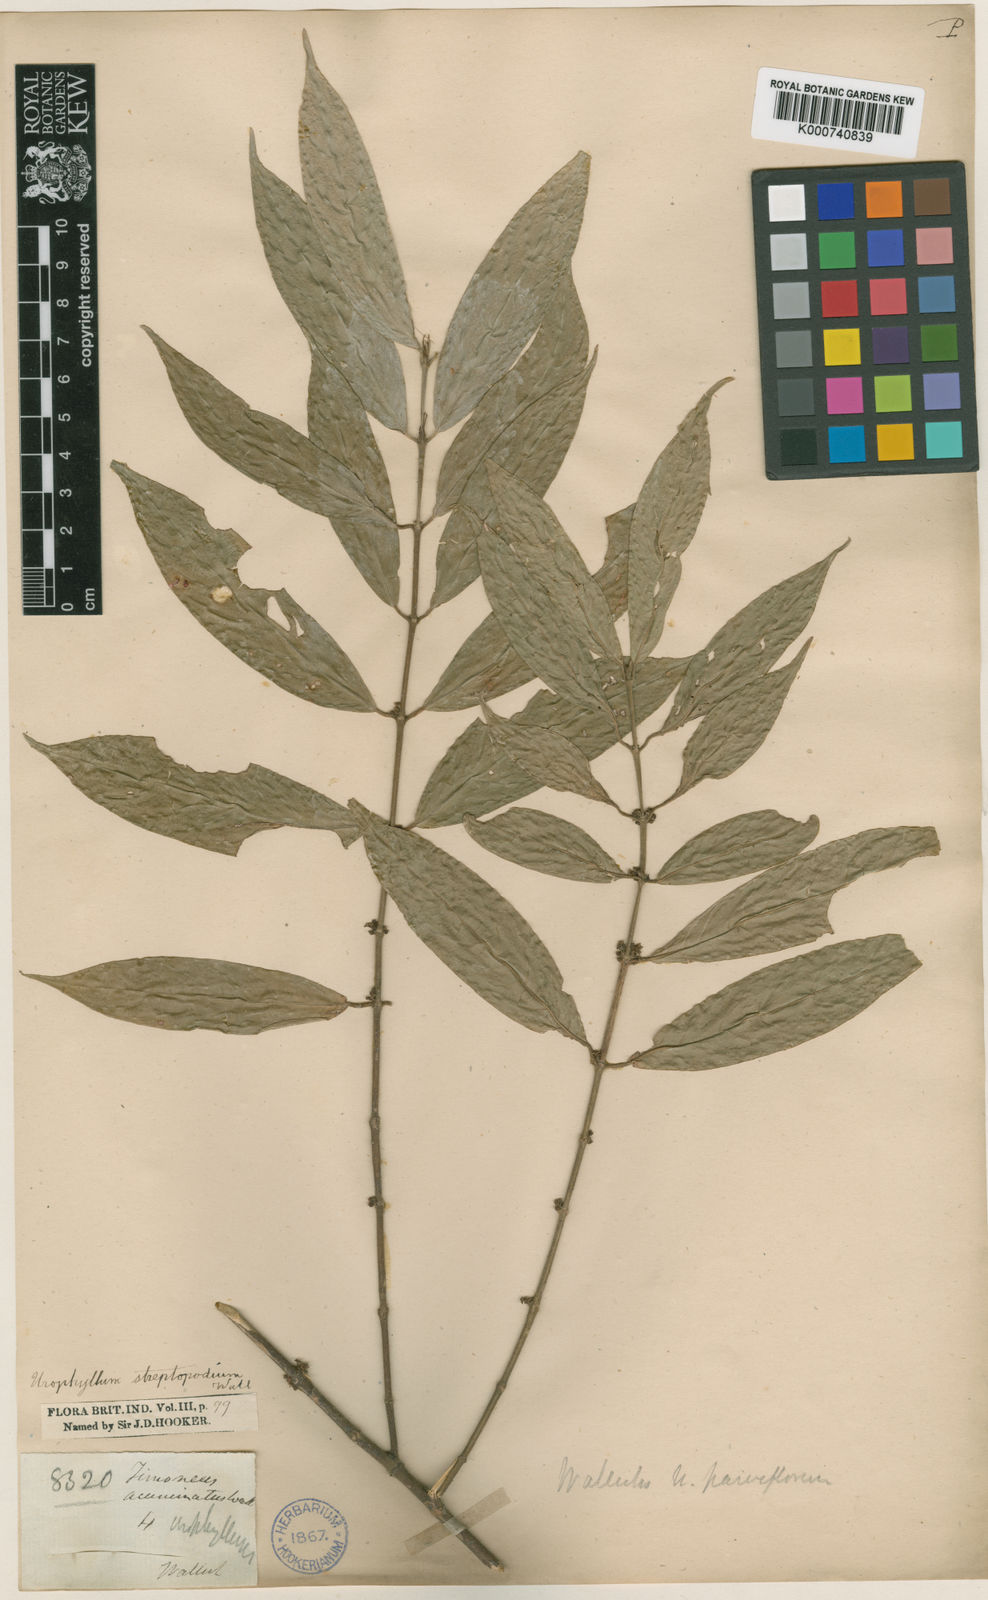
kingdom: Plantae
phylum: Tracheophyta
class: Magnoliopsida
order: Gentianales
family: Rubiaceae
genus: Urophyllum
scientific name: Urophyllum
